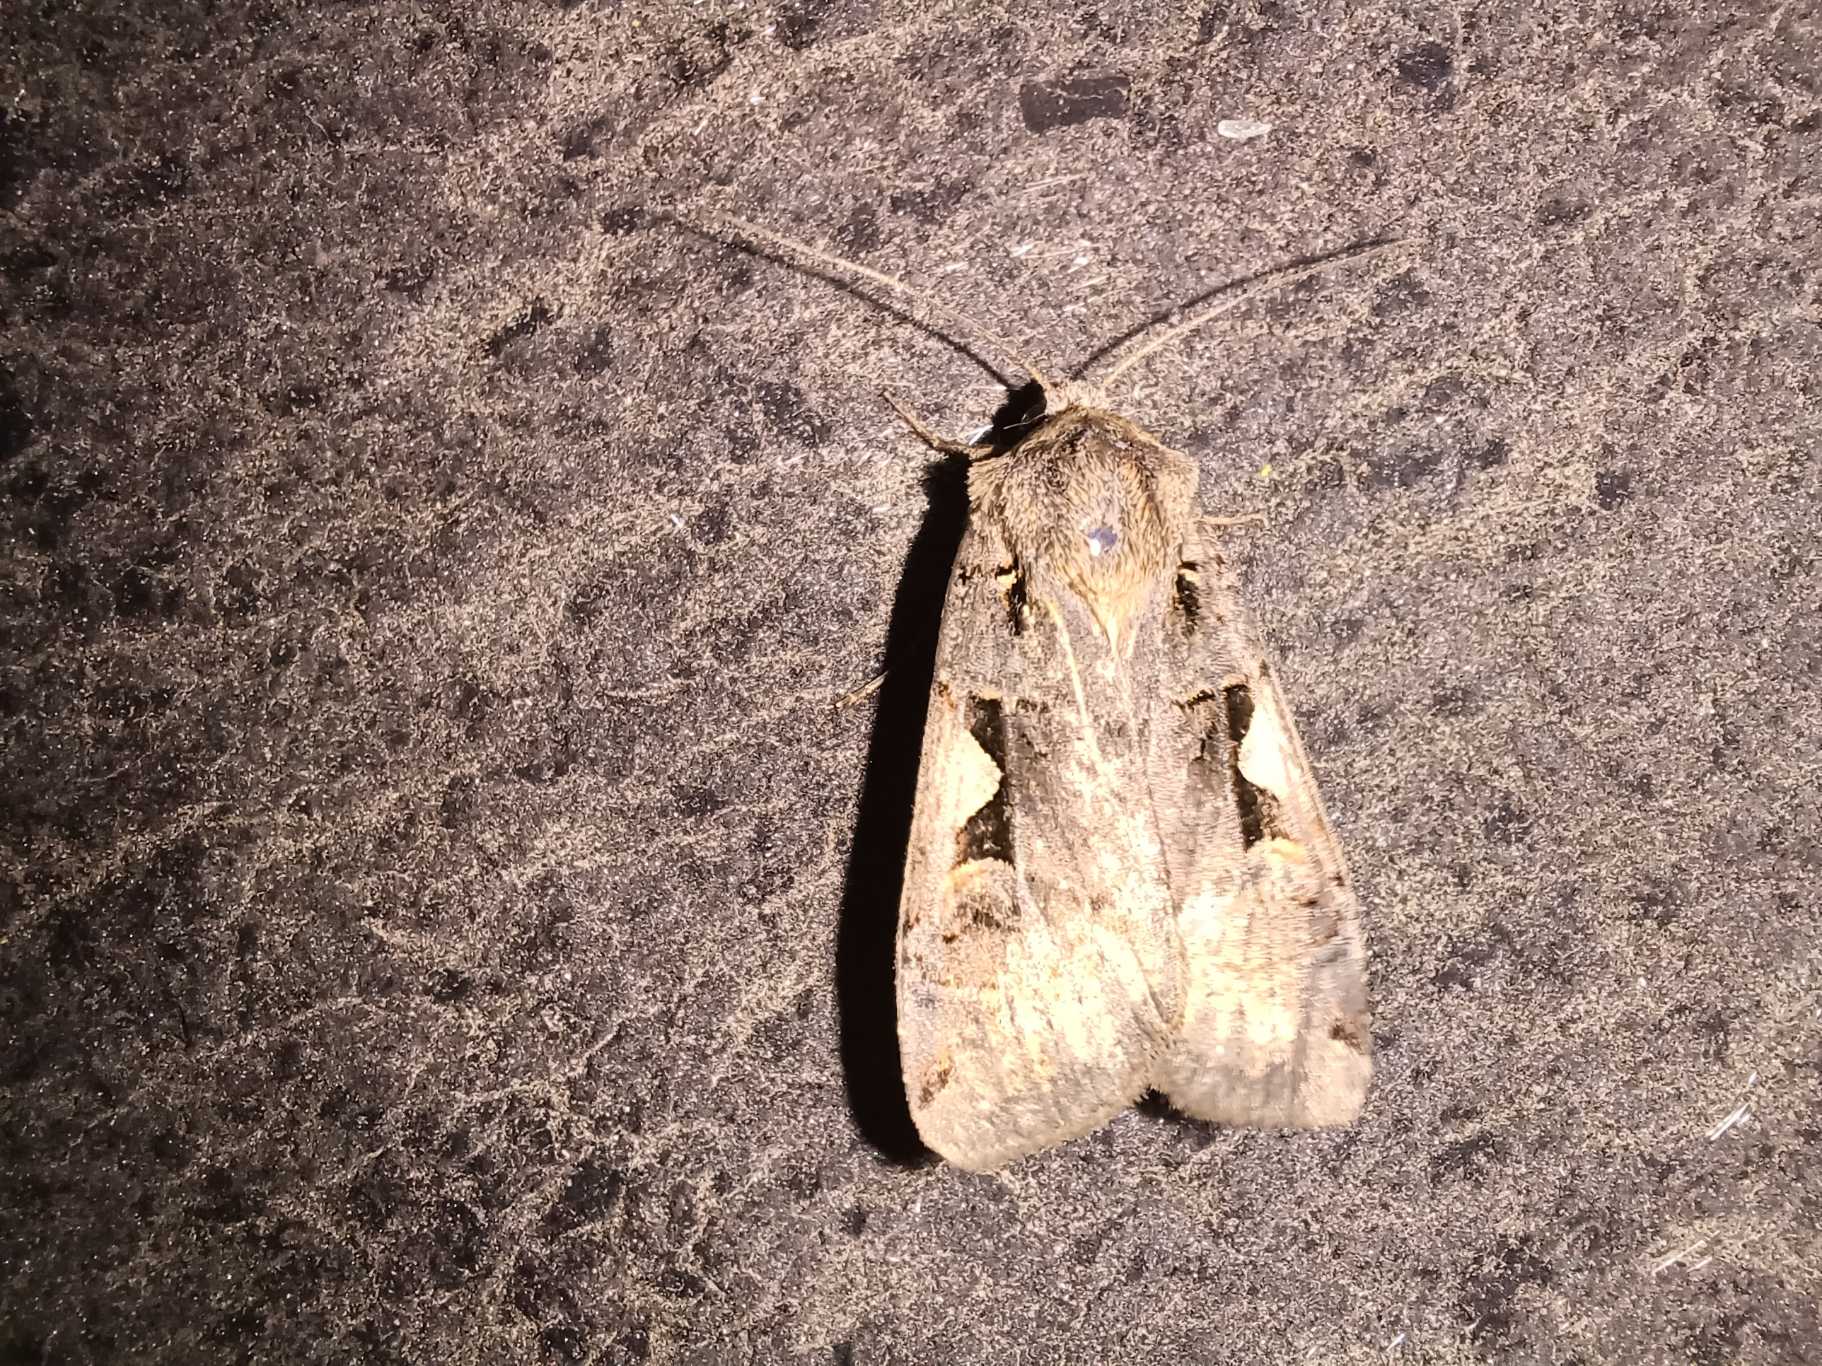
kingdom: Animalia
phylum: Arthropoda
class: Insecta
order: Lepidoptera
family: Noctuidae
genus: Xestia
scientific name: Xestia c-nigrum
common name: Det sorte c
